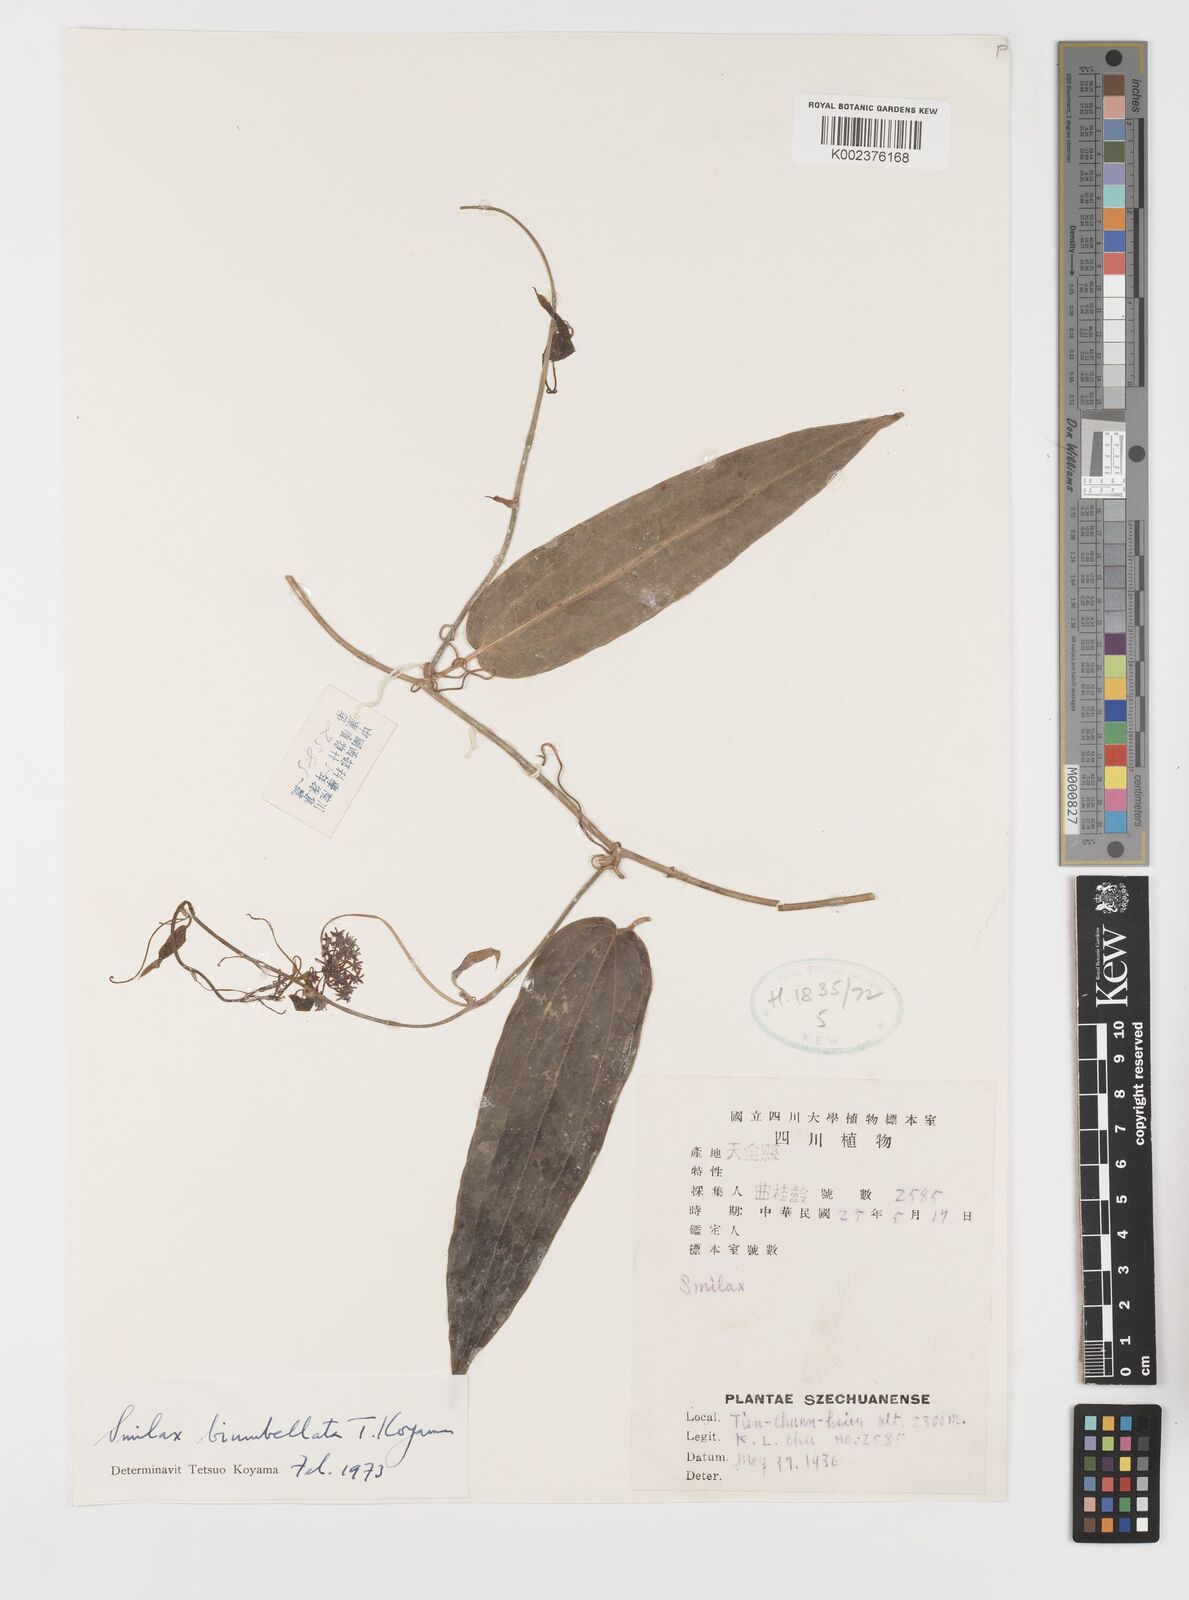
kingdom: Plantae
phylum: Tracheophyta
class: Liliopsida
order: Liliales
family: Smilacaceae
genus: Smilax
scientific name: Smilax biumbellata
